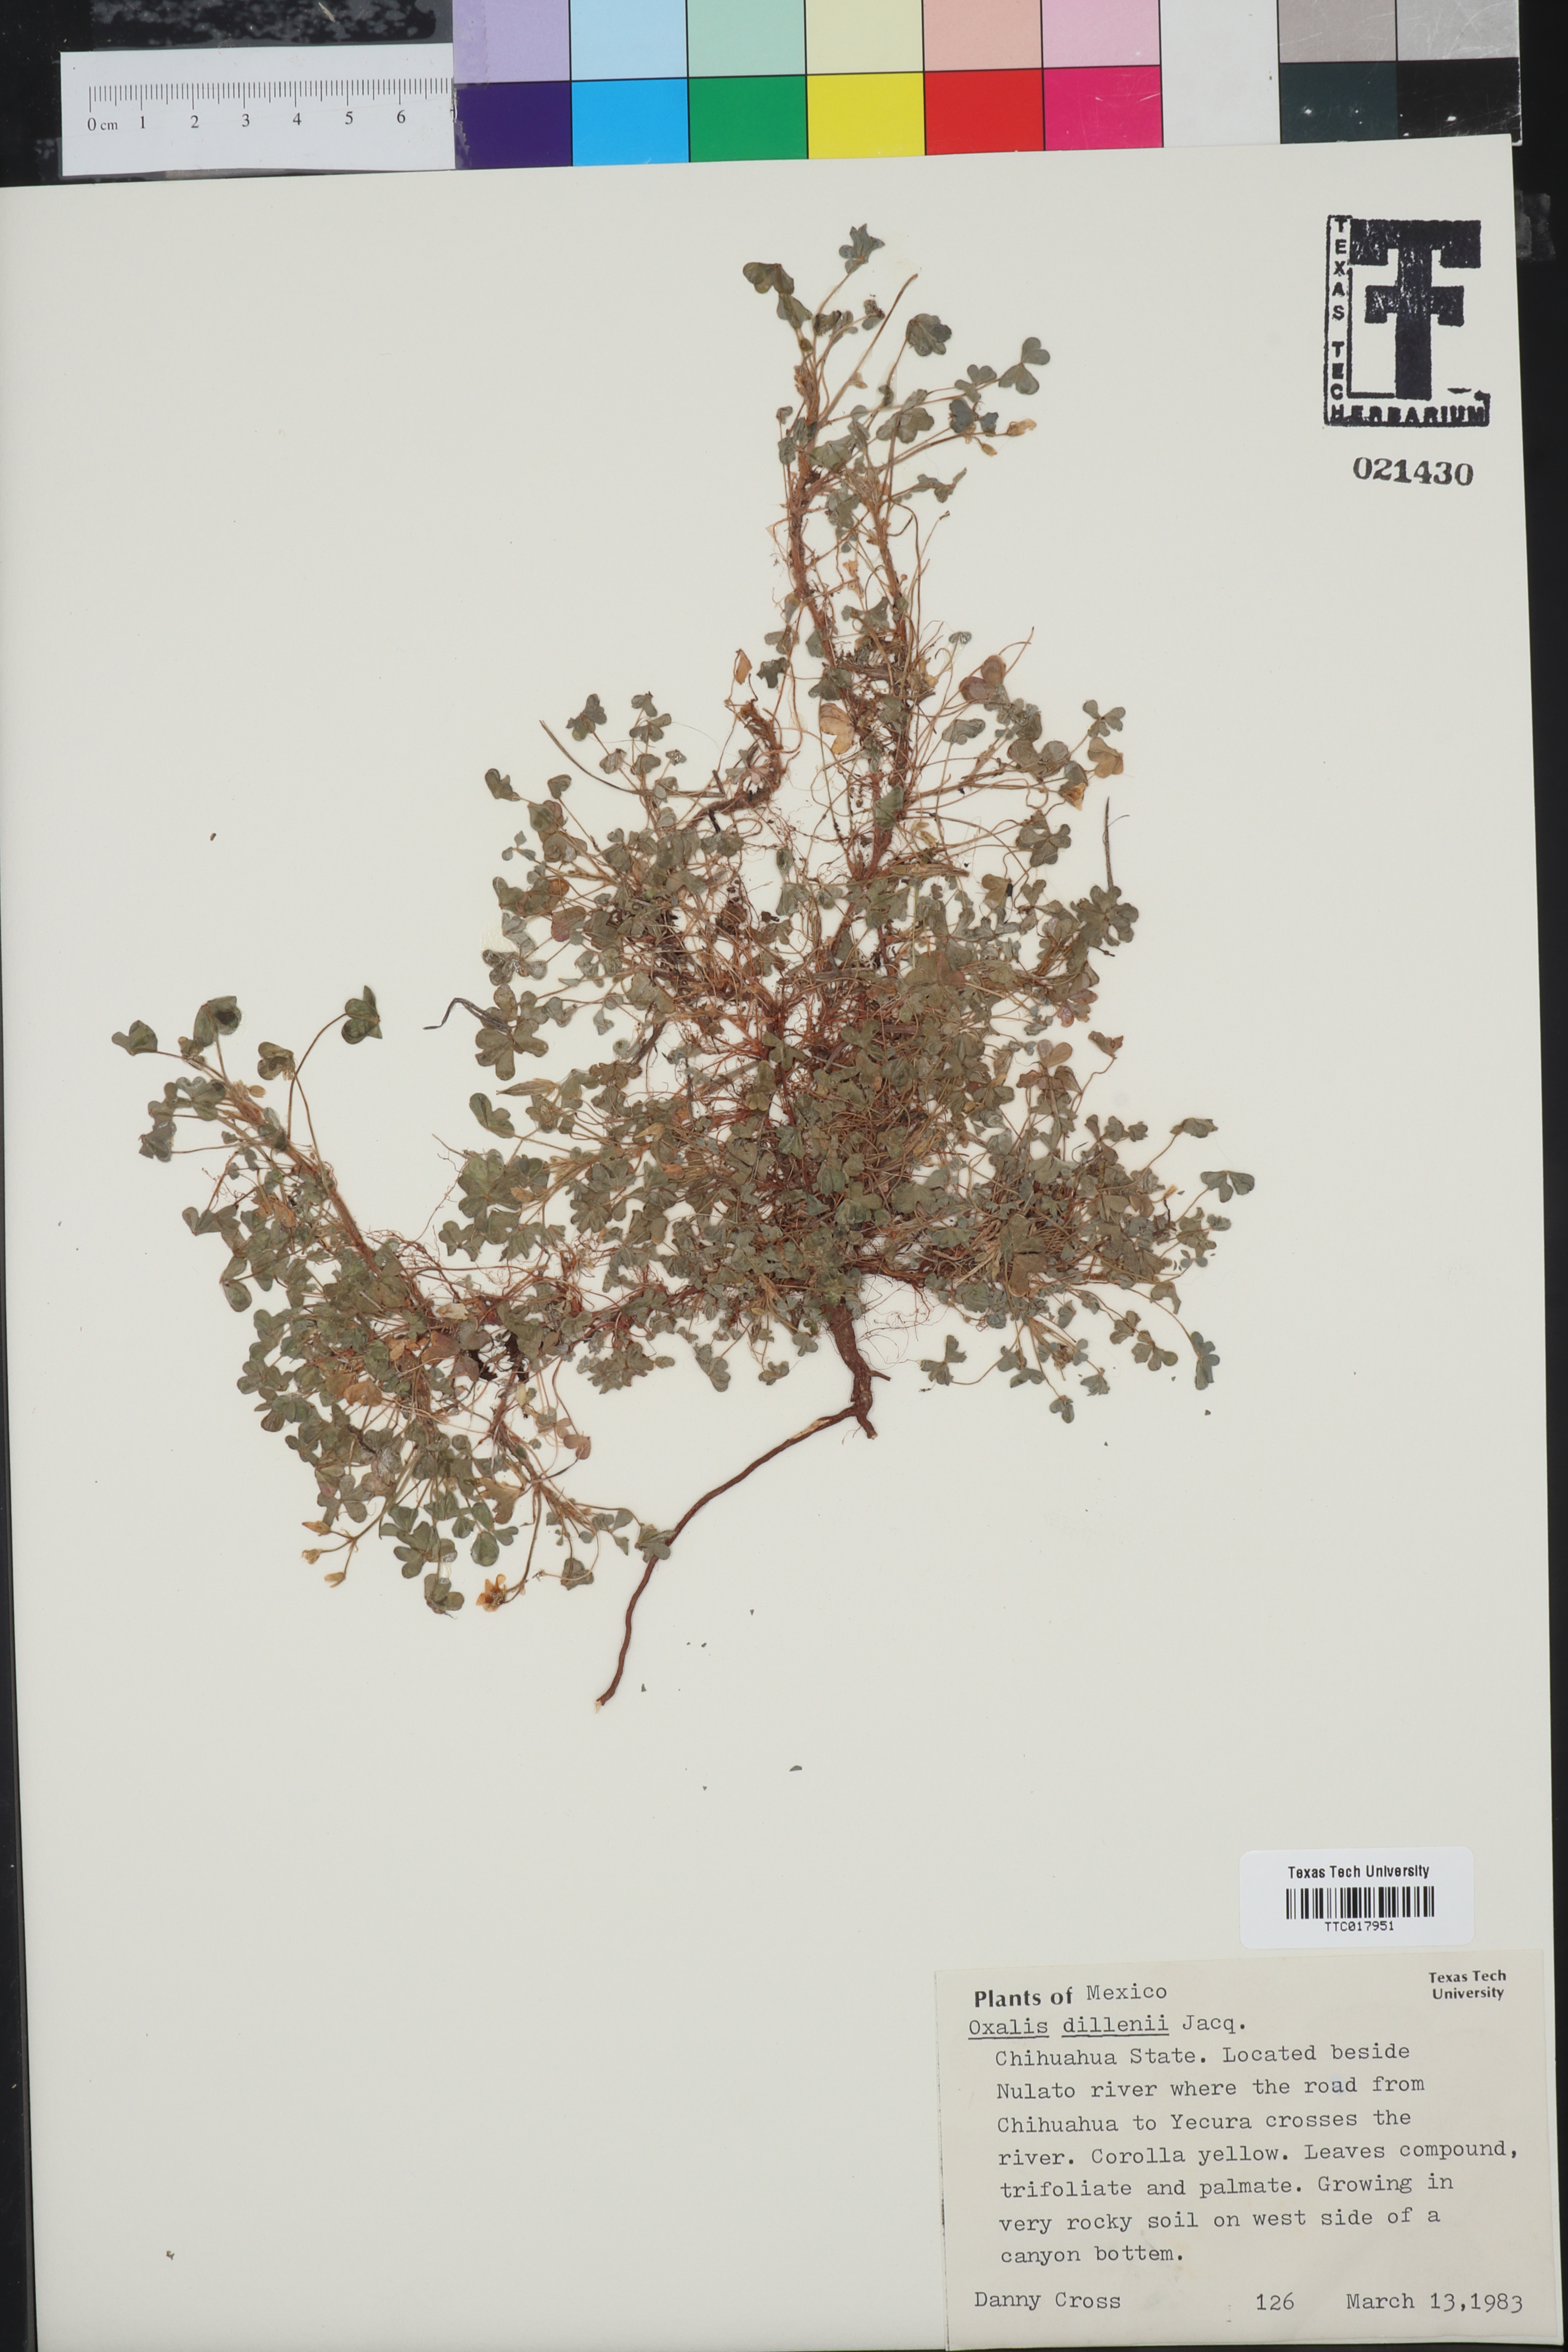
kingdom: Plantae
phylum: Tracheophyta
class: Magnoliopsida
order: Oxalidales
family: Oxalidaceae
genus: Oxalis
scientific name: Oxalis dillenii
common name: Sussex yellow-sorrel
